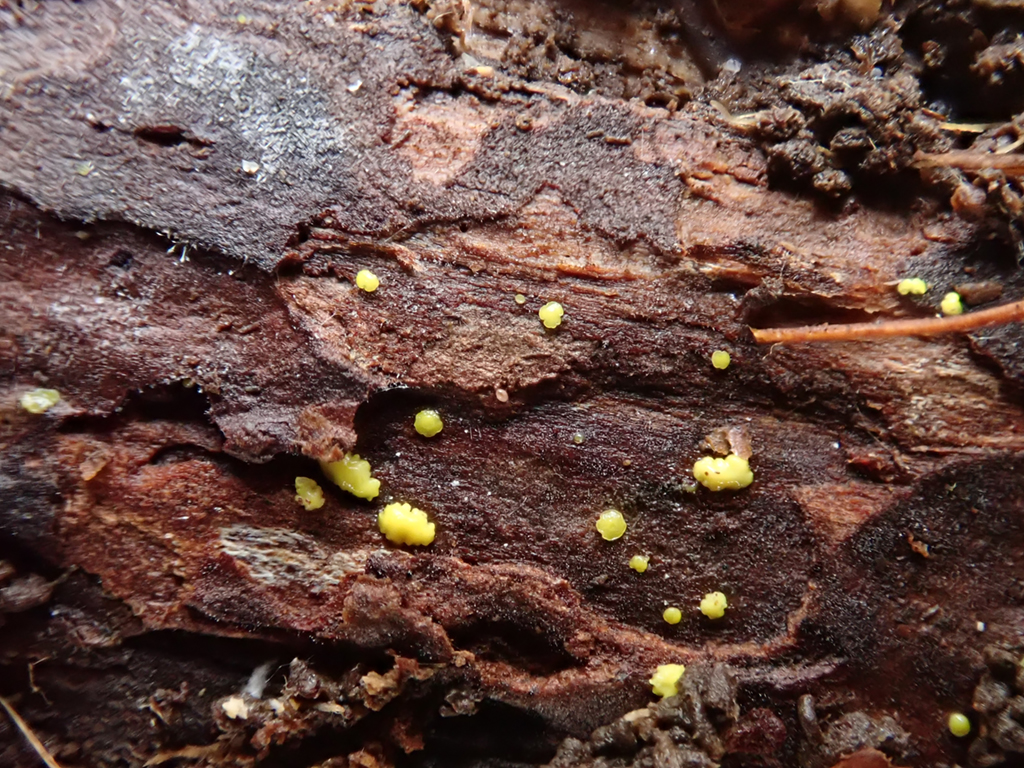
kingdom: Fungi
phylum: Ascomycota
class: Leotiomycetes
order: Helotiales
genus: Lemalis
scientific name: Lemalis aurea
